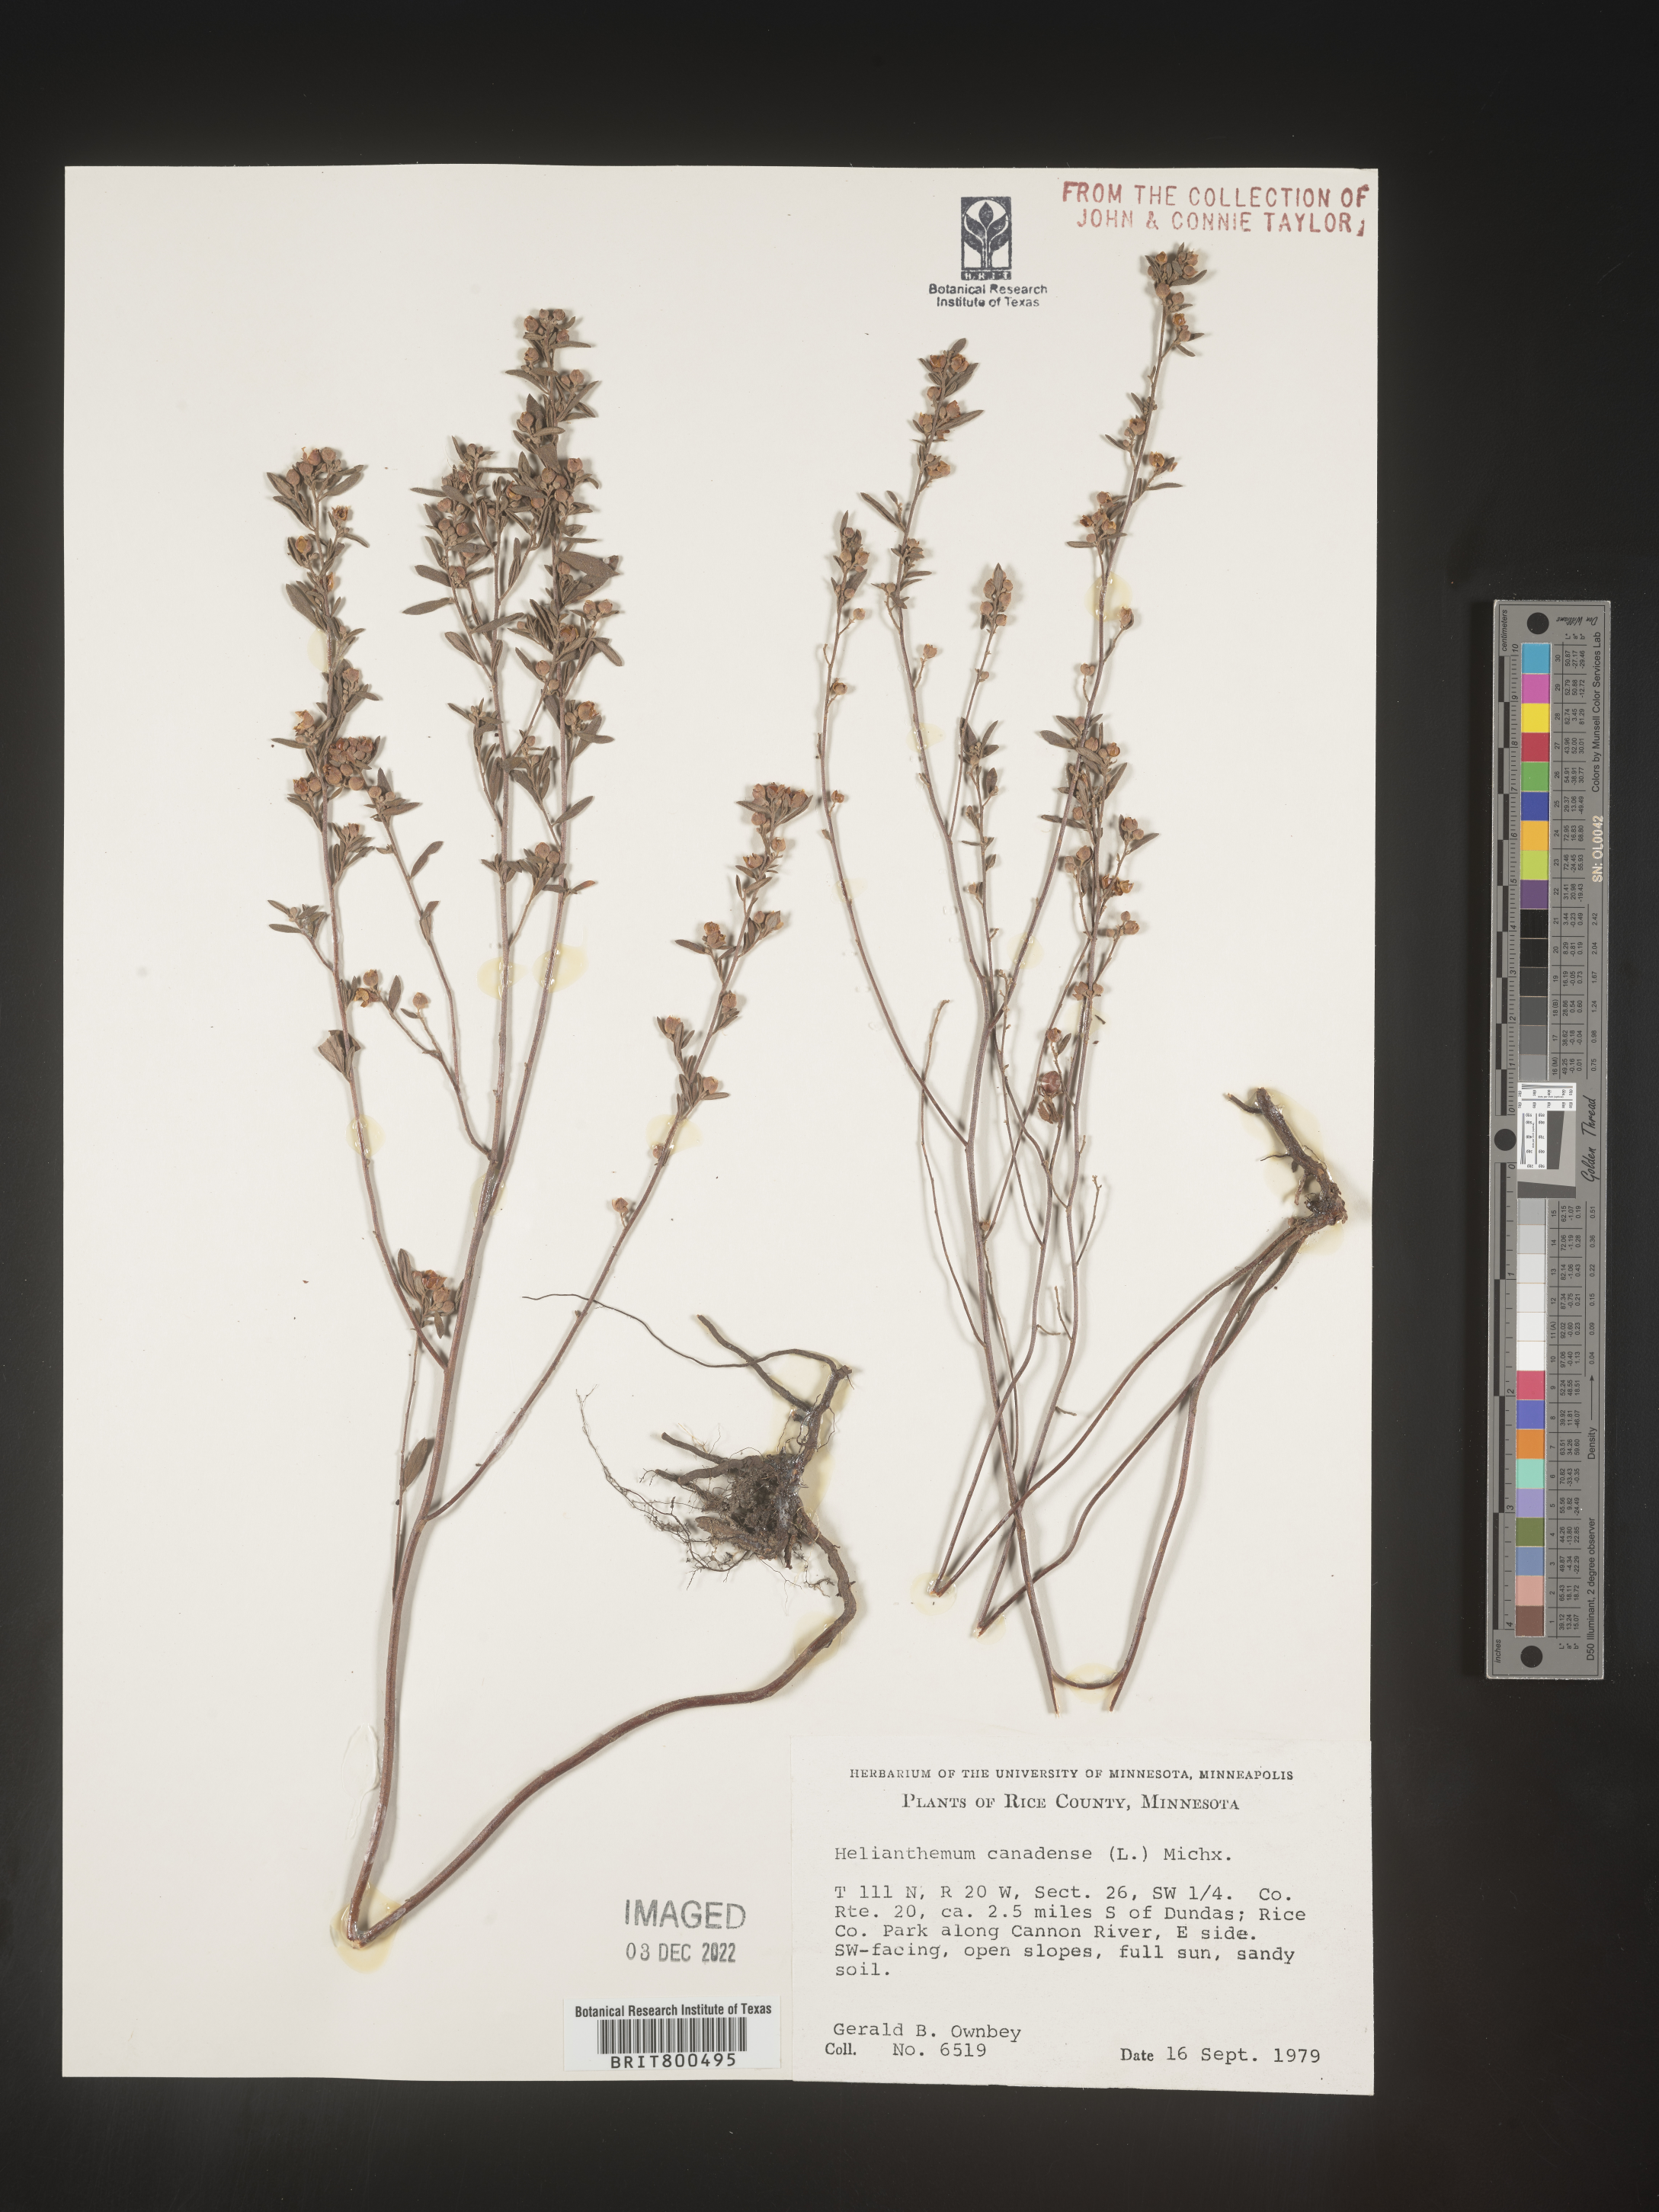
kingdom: Plantae
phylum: Tracheophyta
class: Magnoliopsida
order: Malvales
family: Cistaceae
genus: Crocanthemum
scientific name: Crocanthemum canadense
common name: Canada frostweed
